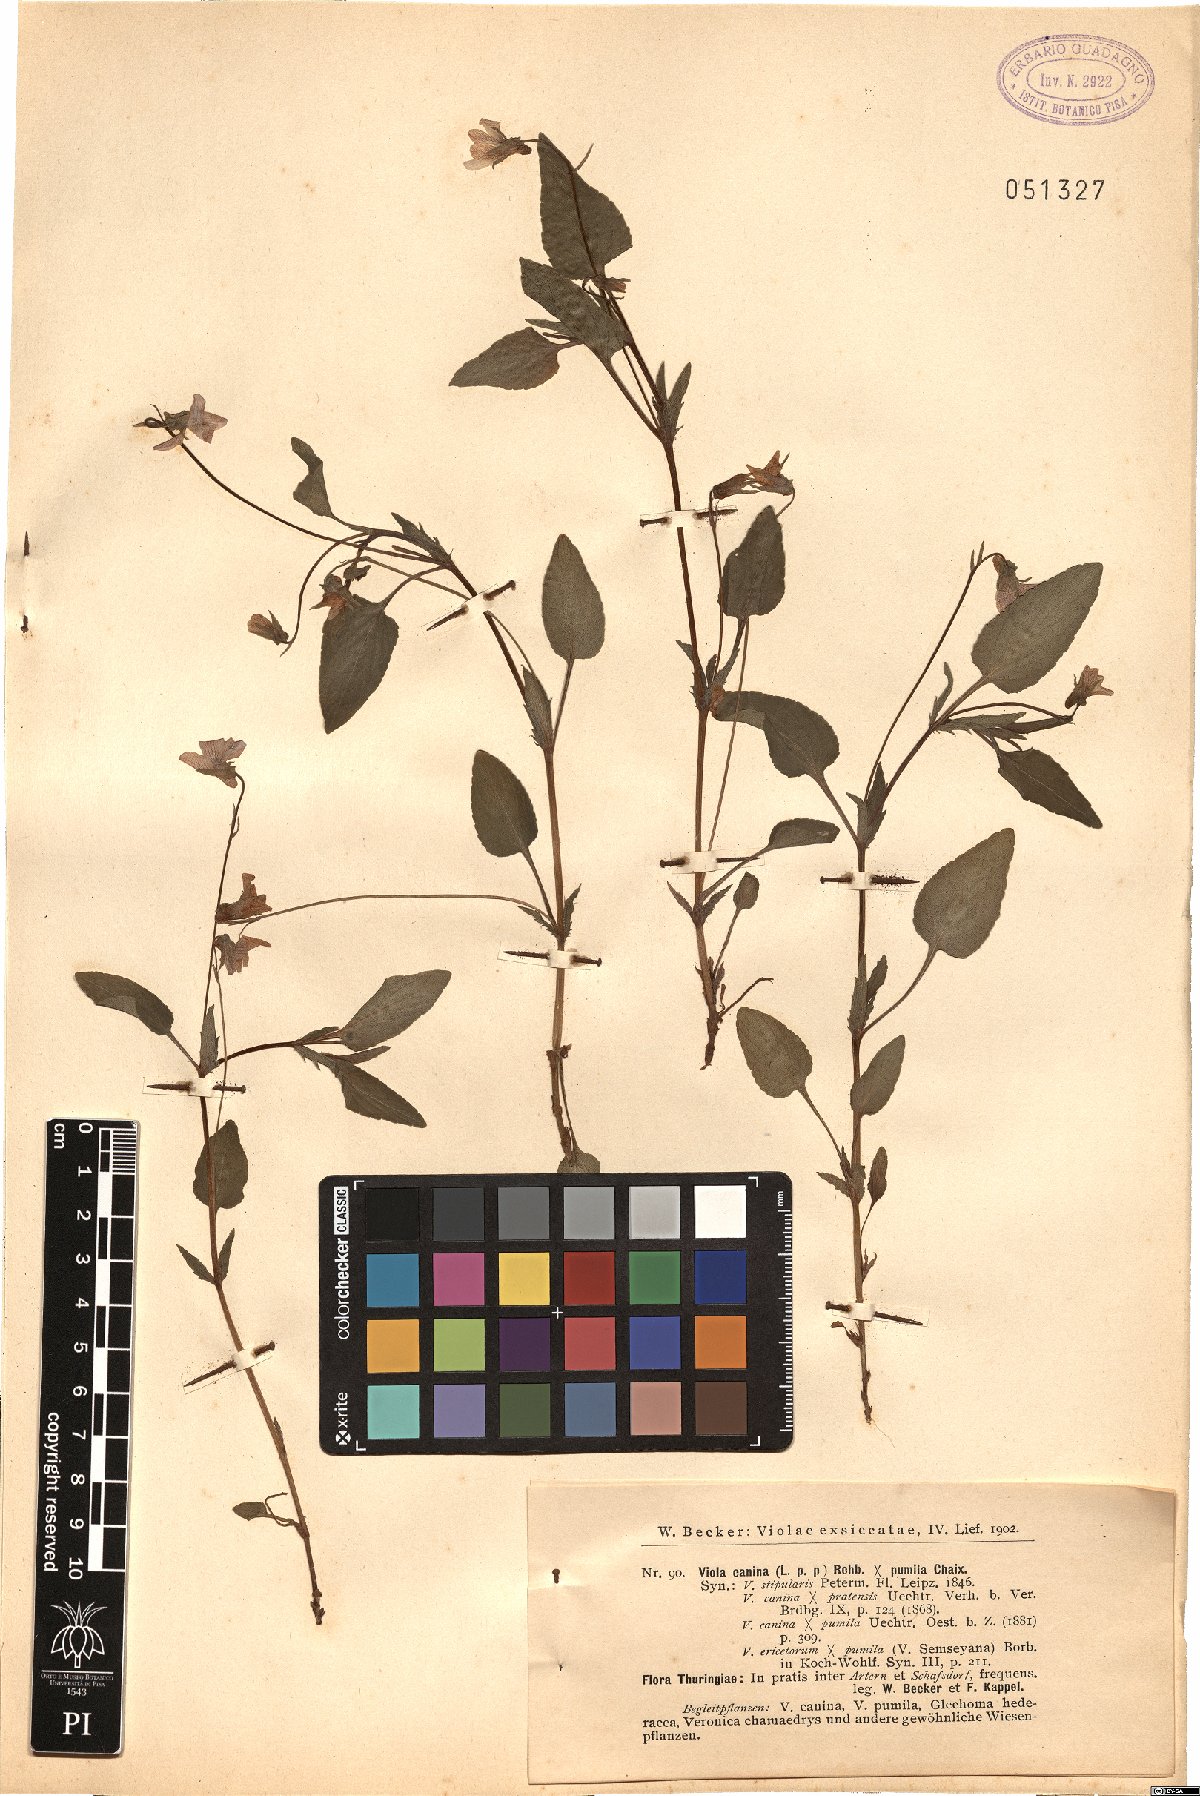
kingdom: Plantae
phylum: Tracheophyta
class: Magnoliopsida
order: Malpighiales
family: Violaceae
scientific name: Violaceae
